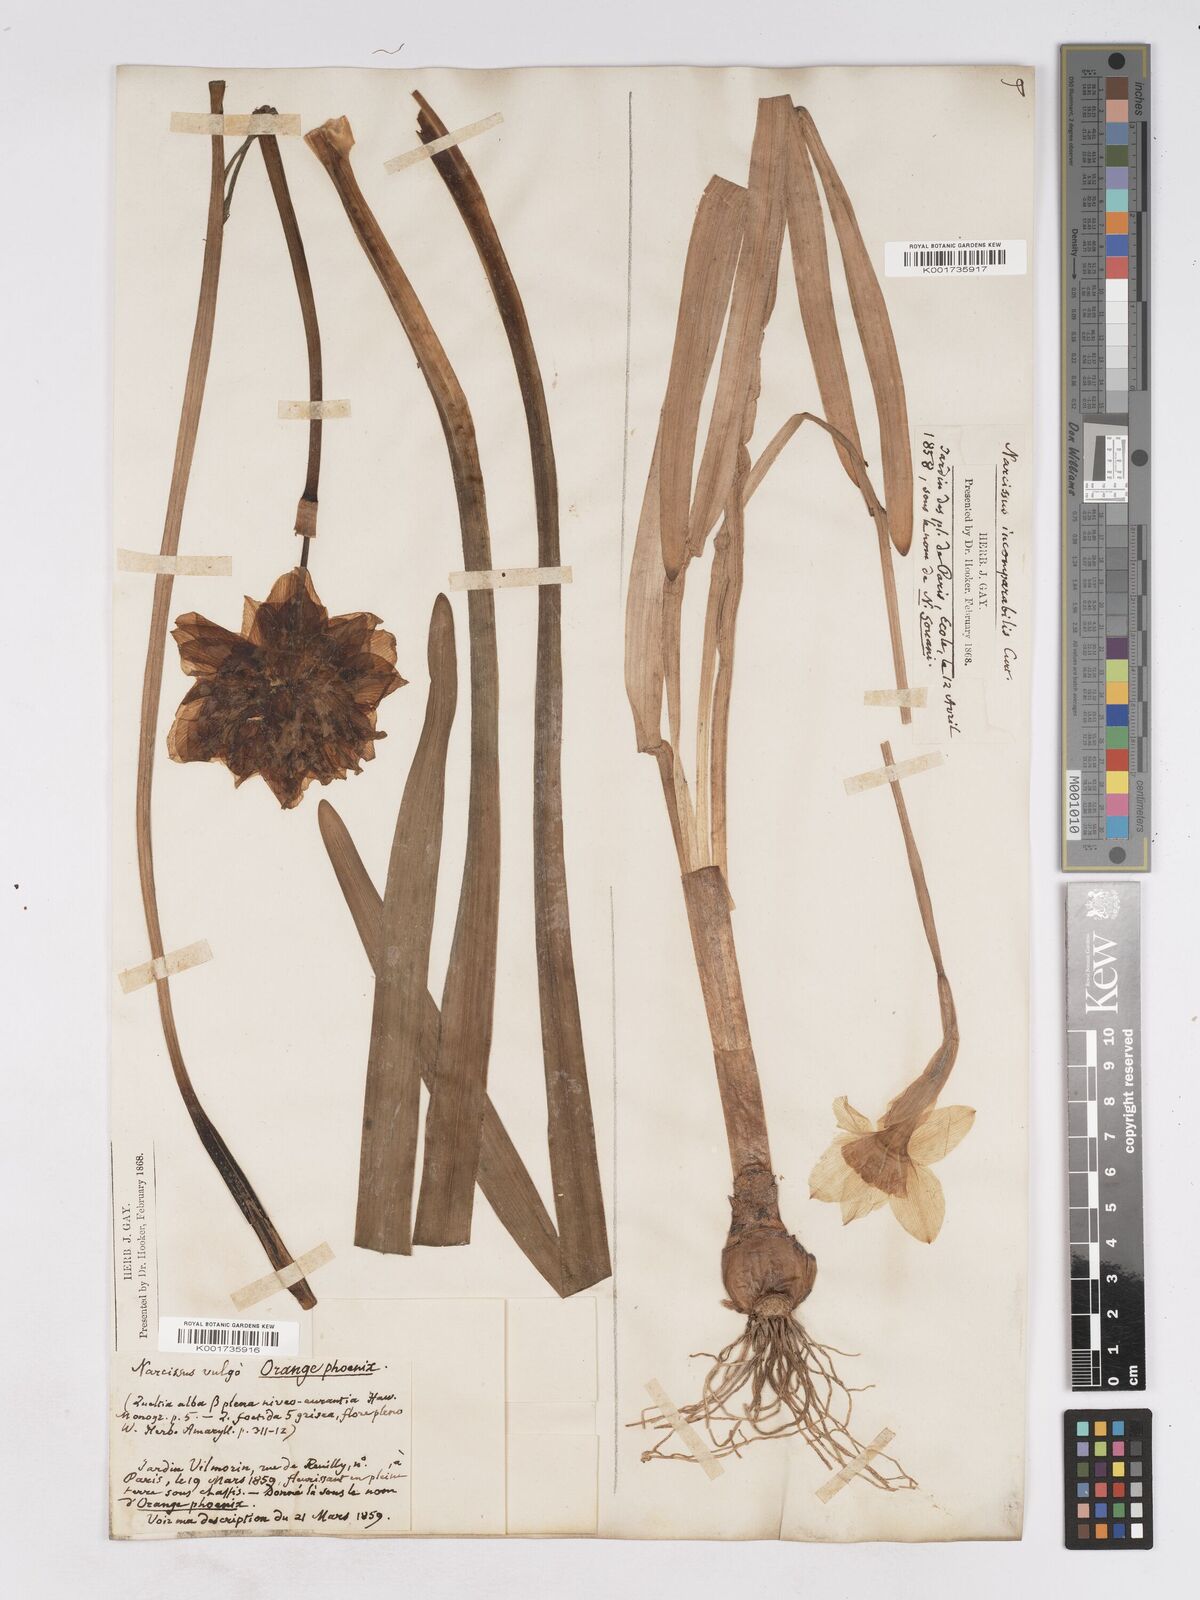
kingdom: Plantae
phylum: Tracheophyta
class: Liliopsida
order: Asparagales
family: Amaryllidaceae
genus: Narcissus
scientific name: Narcissus incomparabilis
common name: Nonesuch daffodil
